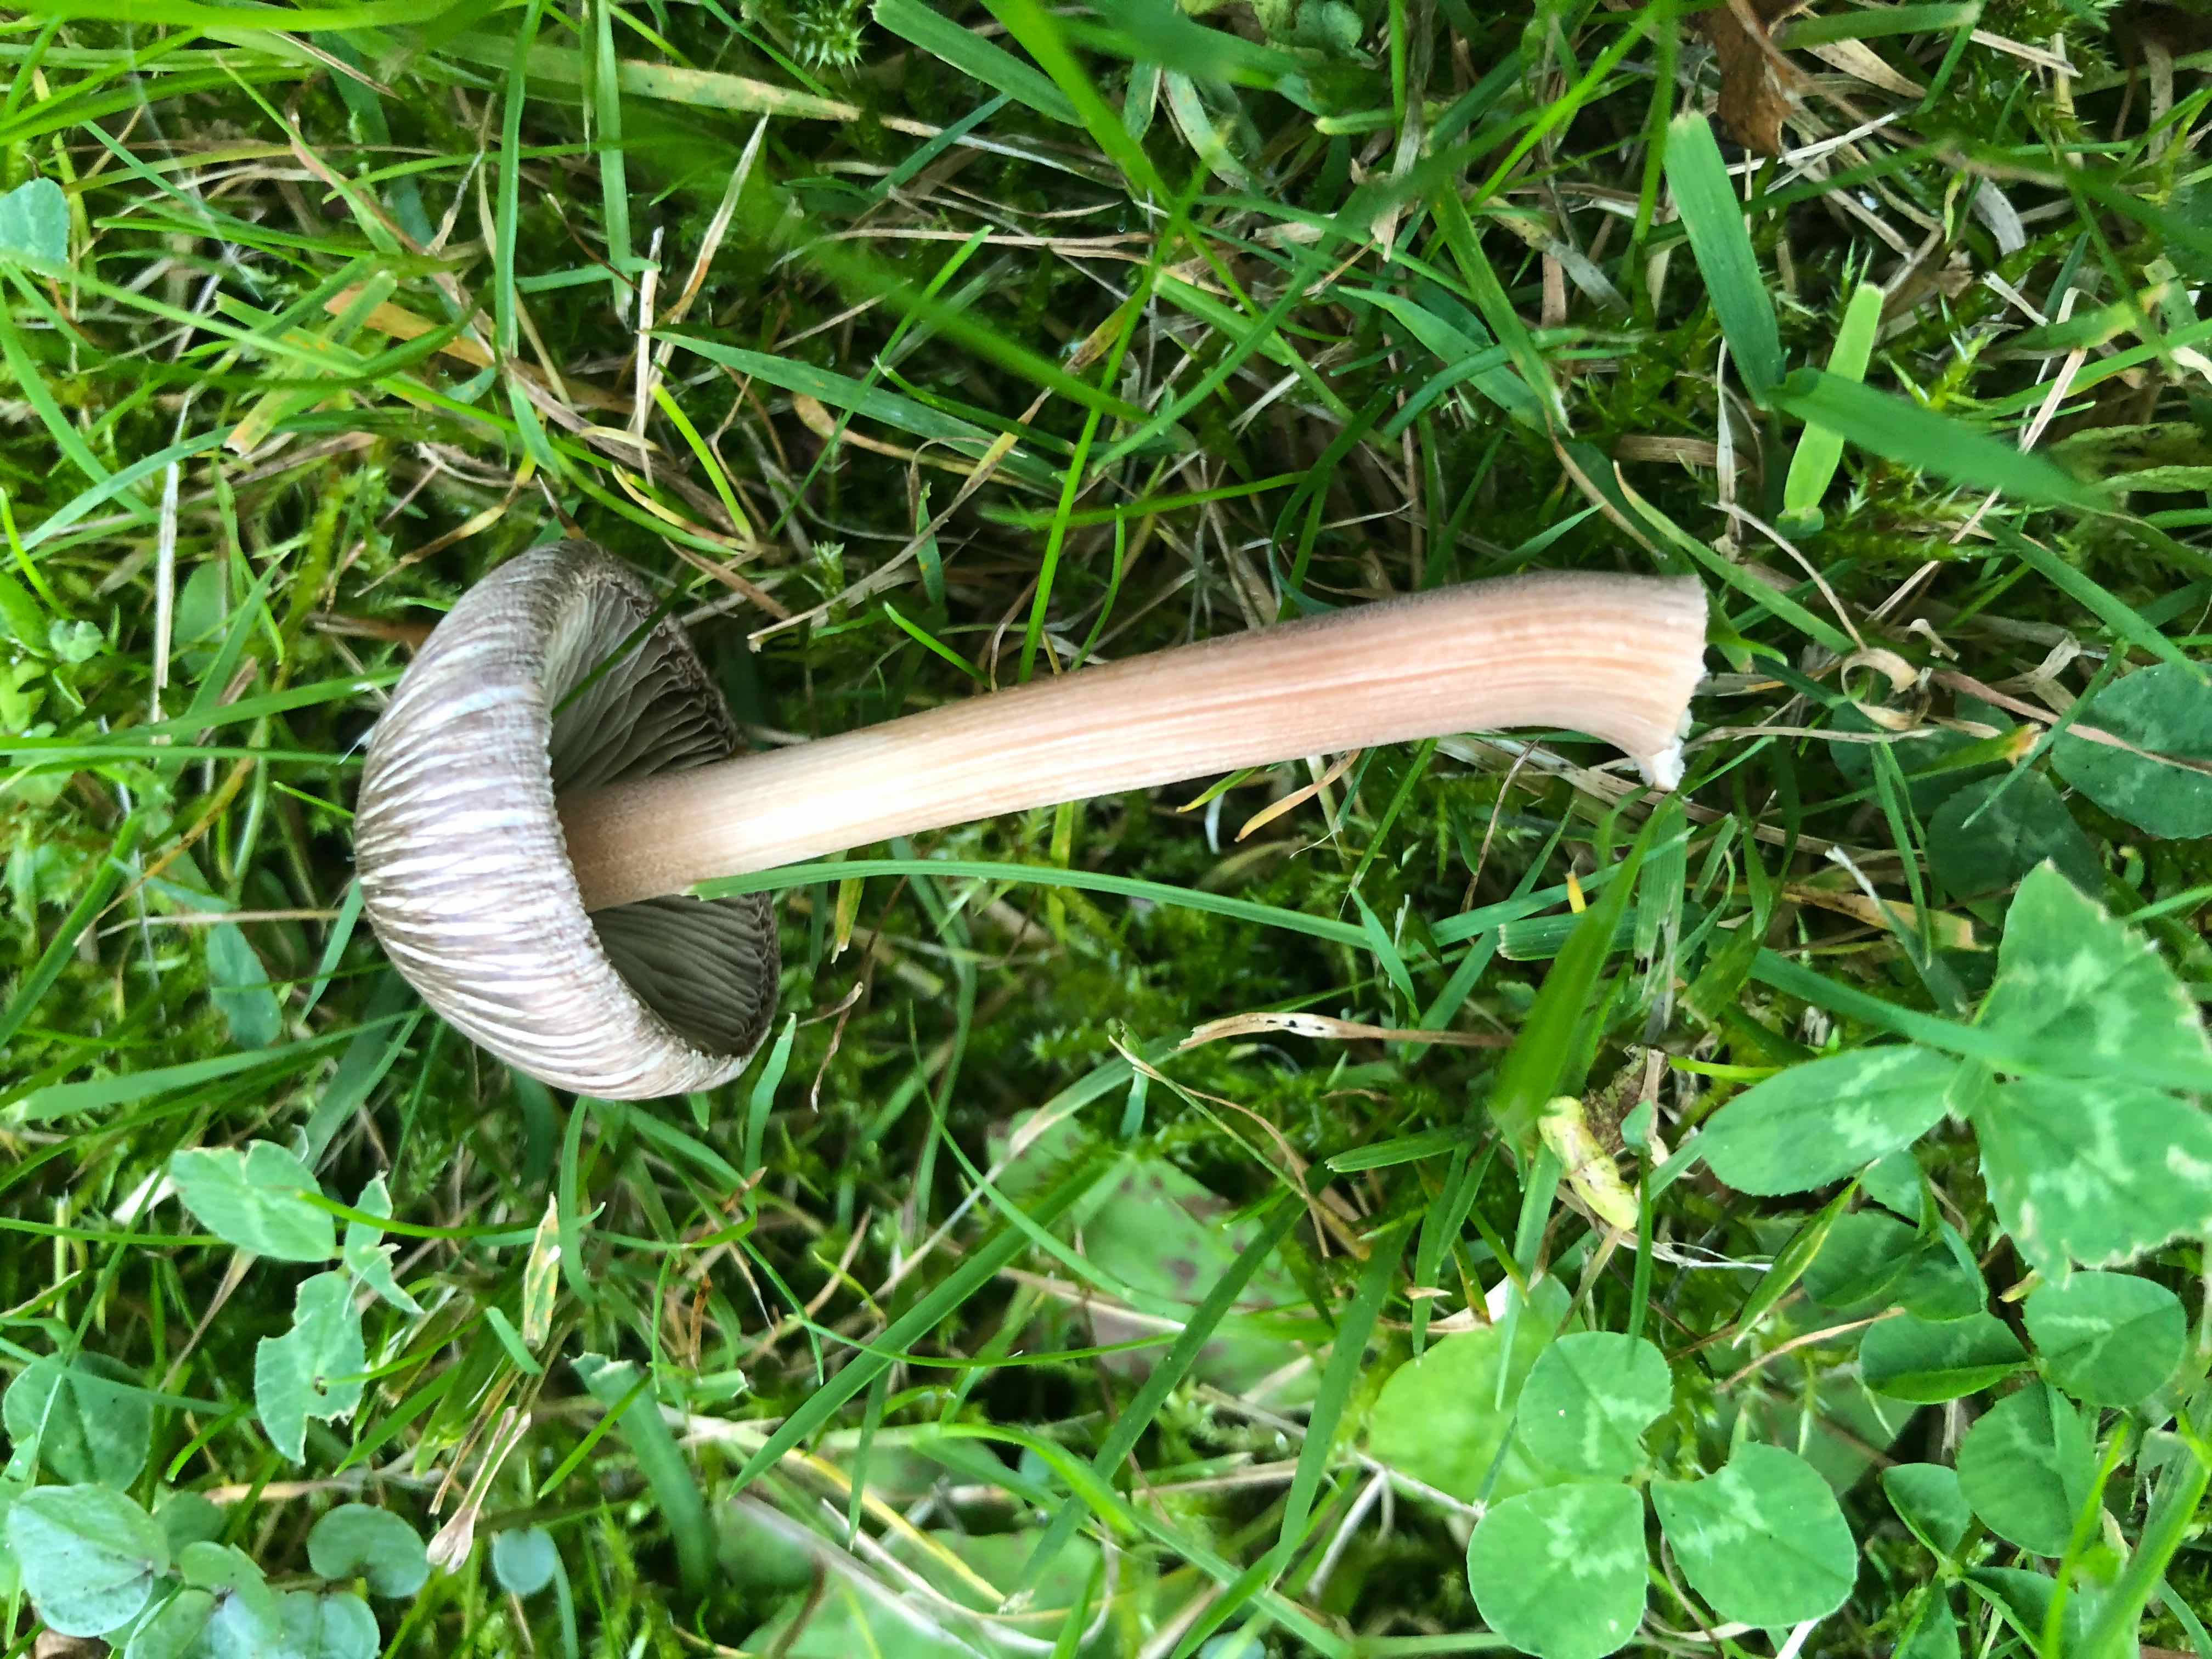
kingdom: Fungi
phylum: Basidiomycota
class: Agaricomycetes
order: Agaricales
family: Inocybaceae
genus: Inocybe
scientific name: Inocybe asterospora
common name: stjernesporet trævlhat
